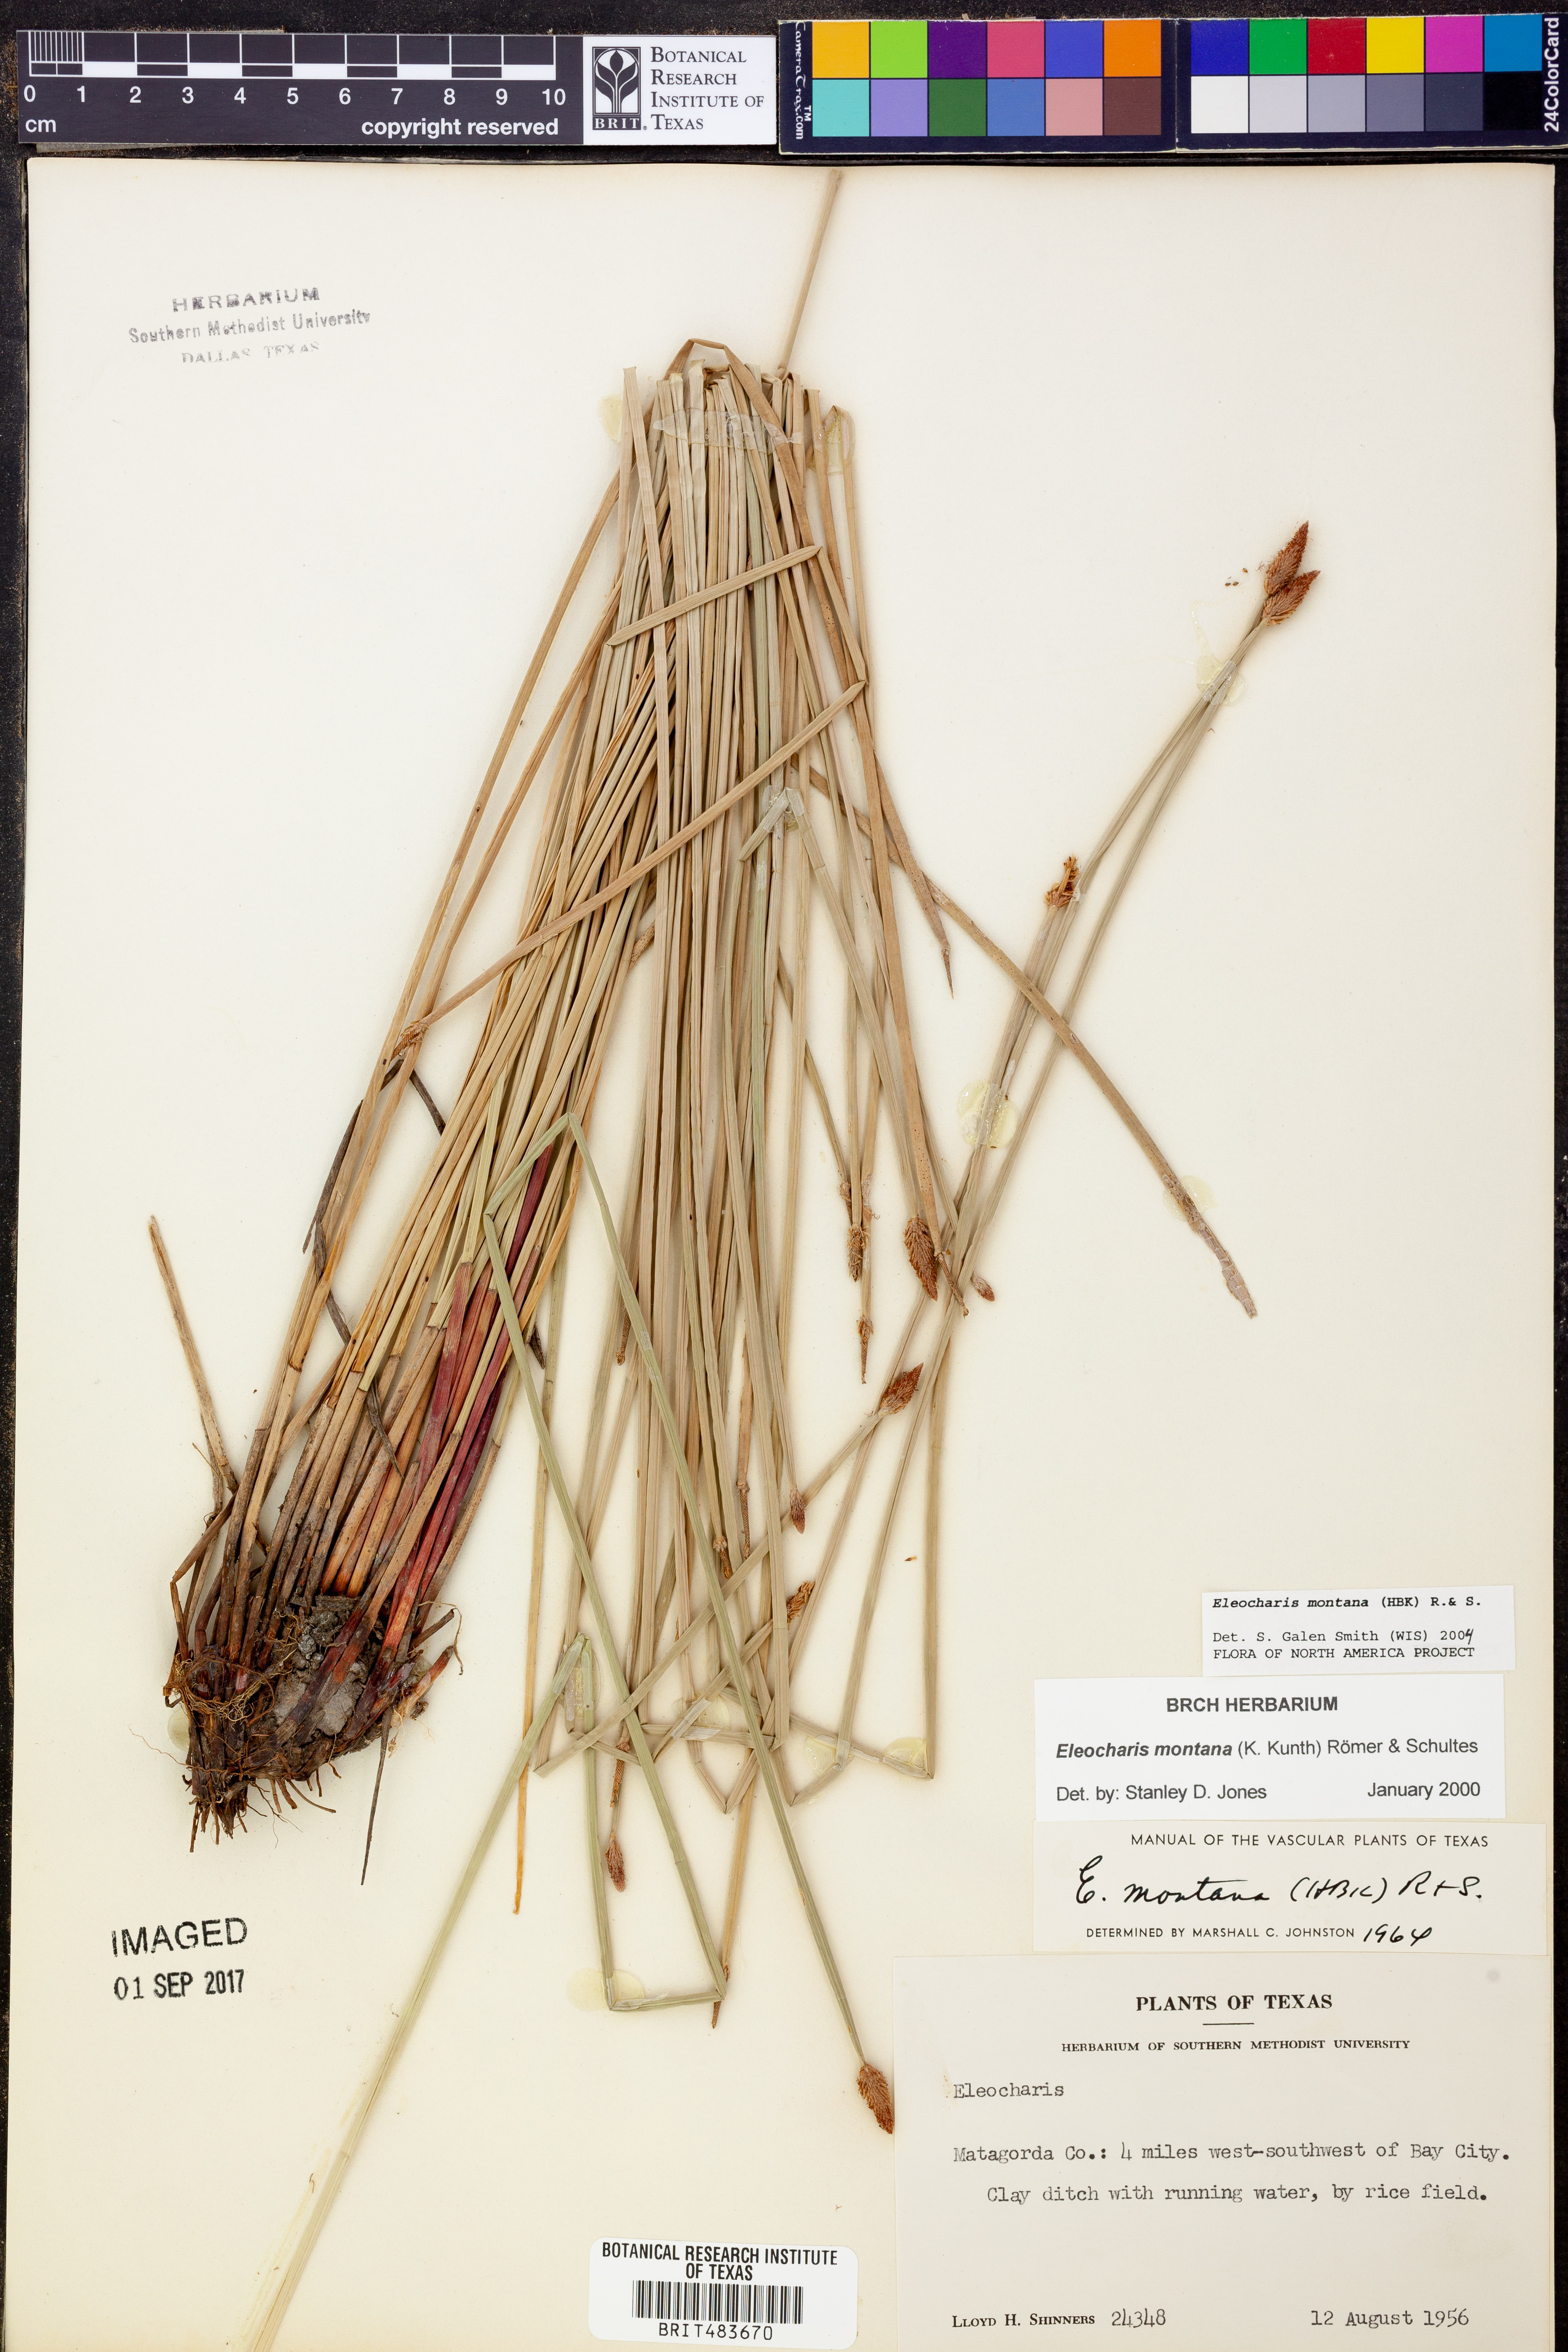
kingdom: Plantae
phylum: Tracheophyta
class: Liliopsida
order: Poales
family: Cyperaceae
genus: Eleocharis
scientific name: Eleocharis montana
